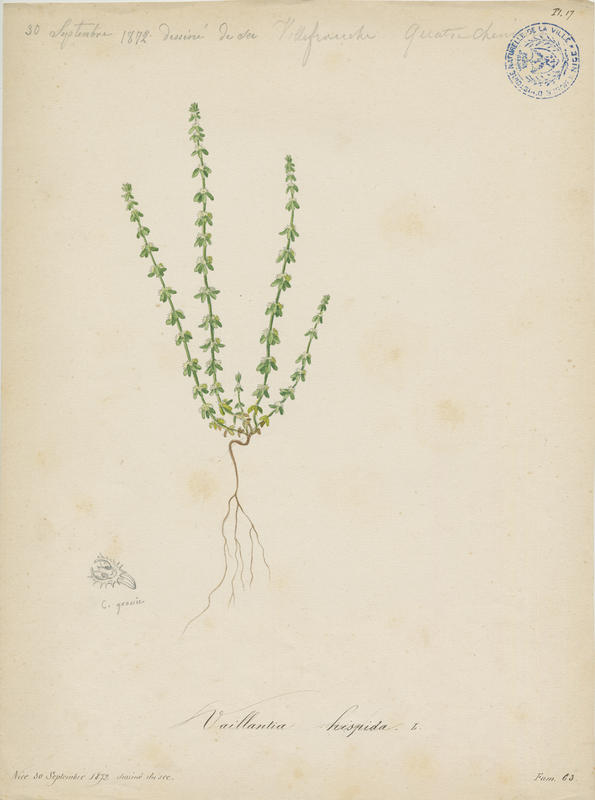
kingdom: Plantae
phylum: Tracheophyta
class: Magnoliopsida
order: Gentianales
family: Rubiaceae
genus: Valantia
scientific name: Valantia hispida
